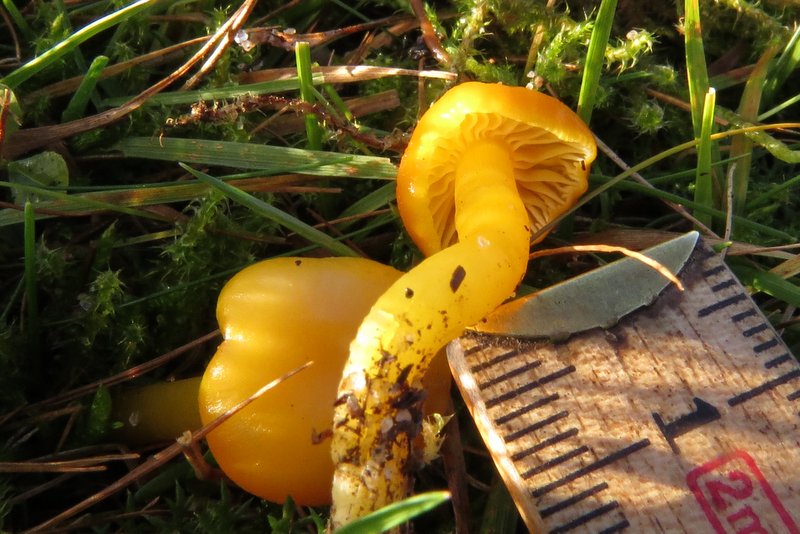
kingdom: Fungi
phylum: Basidiomycota
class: Agaricomycetes
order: Agaricales
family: Hygrophoraceae
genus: Hygrocybe
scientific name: Hygrocybe ceracea
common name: voksgul vokshat
